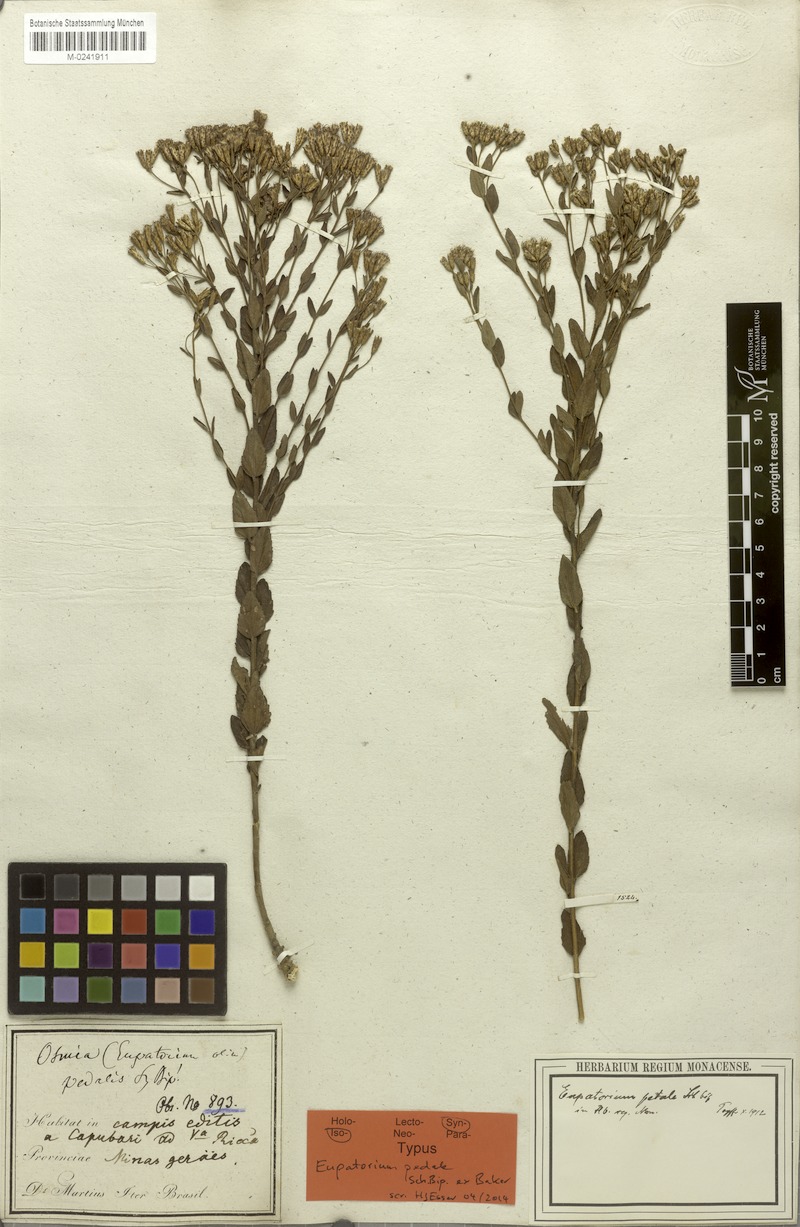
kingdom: Plantae
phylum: Tracheophyta
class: Magnoliopsida
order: Asterales
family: Asteraceae
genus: Chromolaena
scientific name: Chromolaena pedalis
